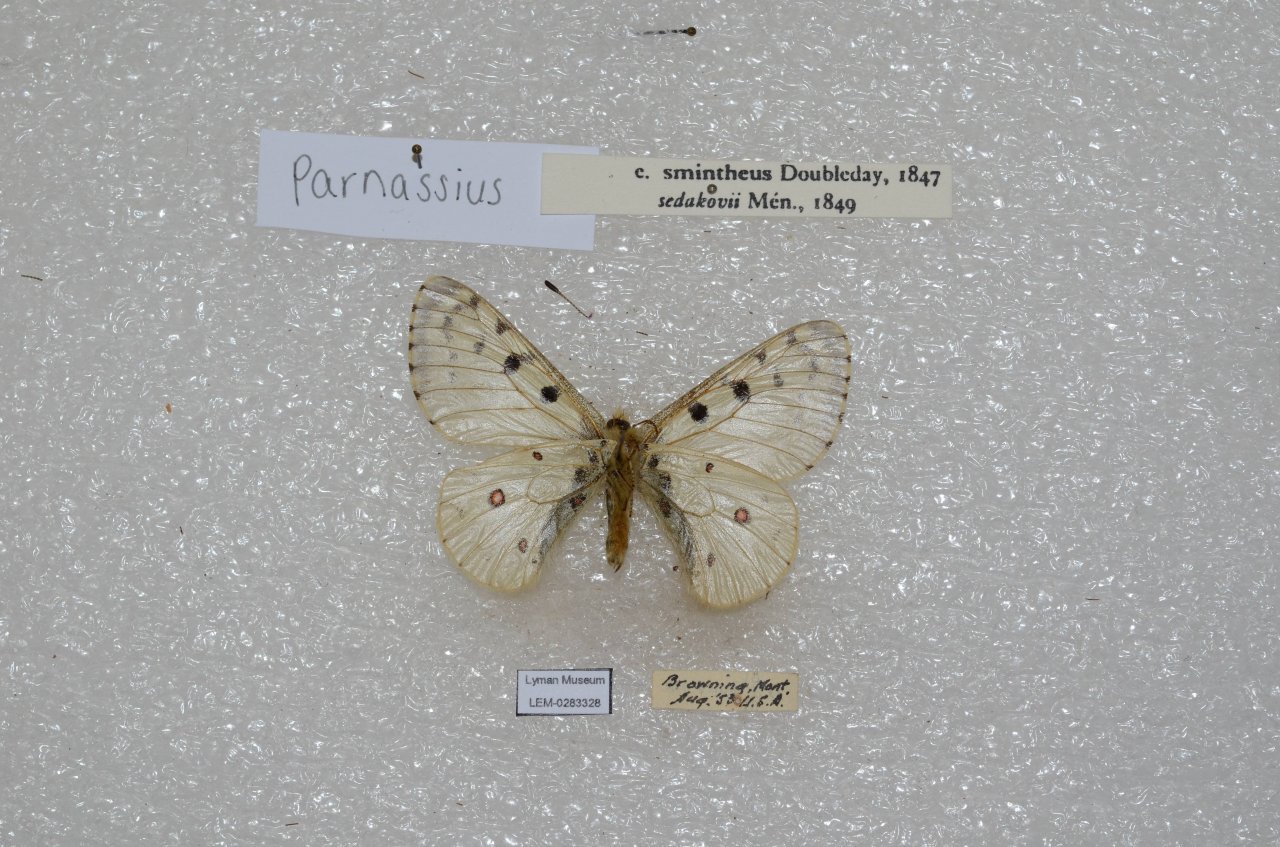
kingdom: Animalia
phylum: Arthropoda
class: Insecta
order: Lepidoptera
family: Papilionidae
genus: Parnassius
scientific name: Parnassius smintheus
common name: Rocky Mountain Parnassian
